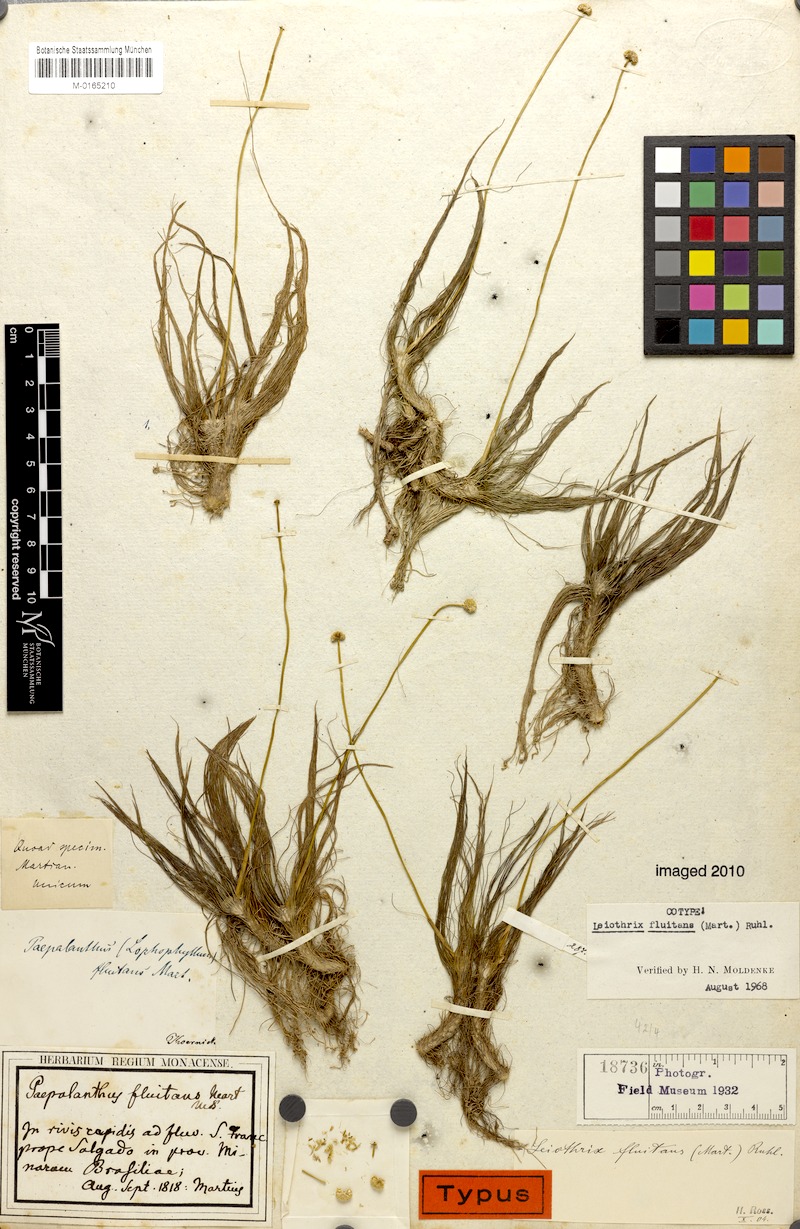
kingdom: Plantae
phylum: Tracheophyta
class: Liliopsida
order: Poales
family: Eriocaulaceae
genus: Leiothrix
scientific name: Leiothrix fluitans
